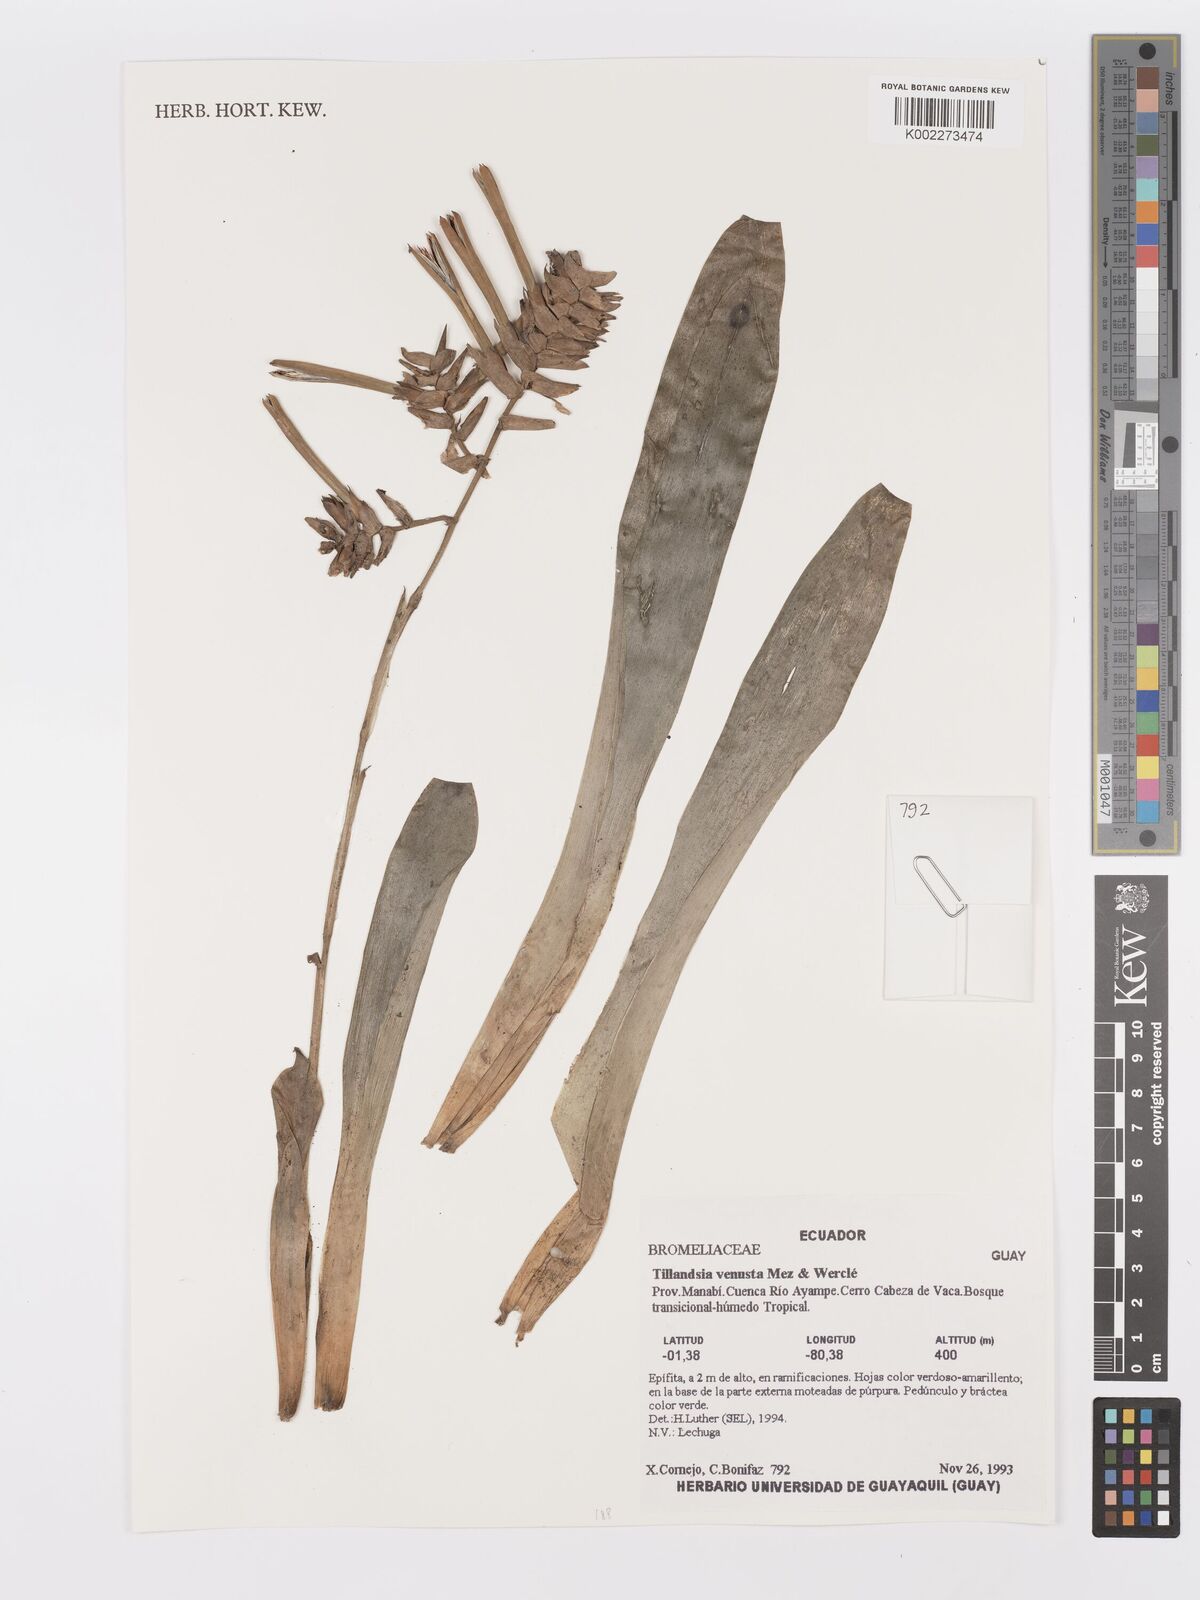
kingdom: Plantae
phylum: Tracheophyta
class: Liliopsida
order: Poales
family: Bromeliaceae
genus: Racinaea
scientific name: Racinaea venusta
